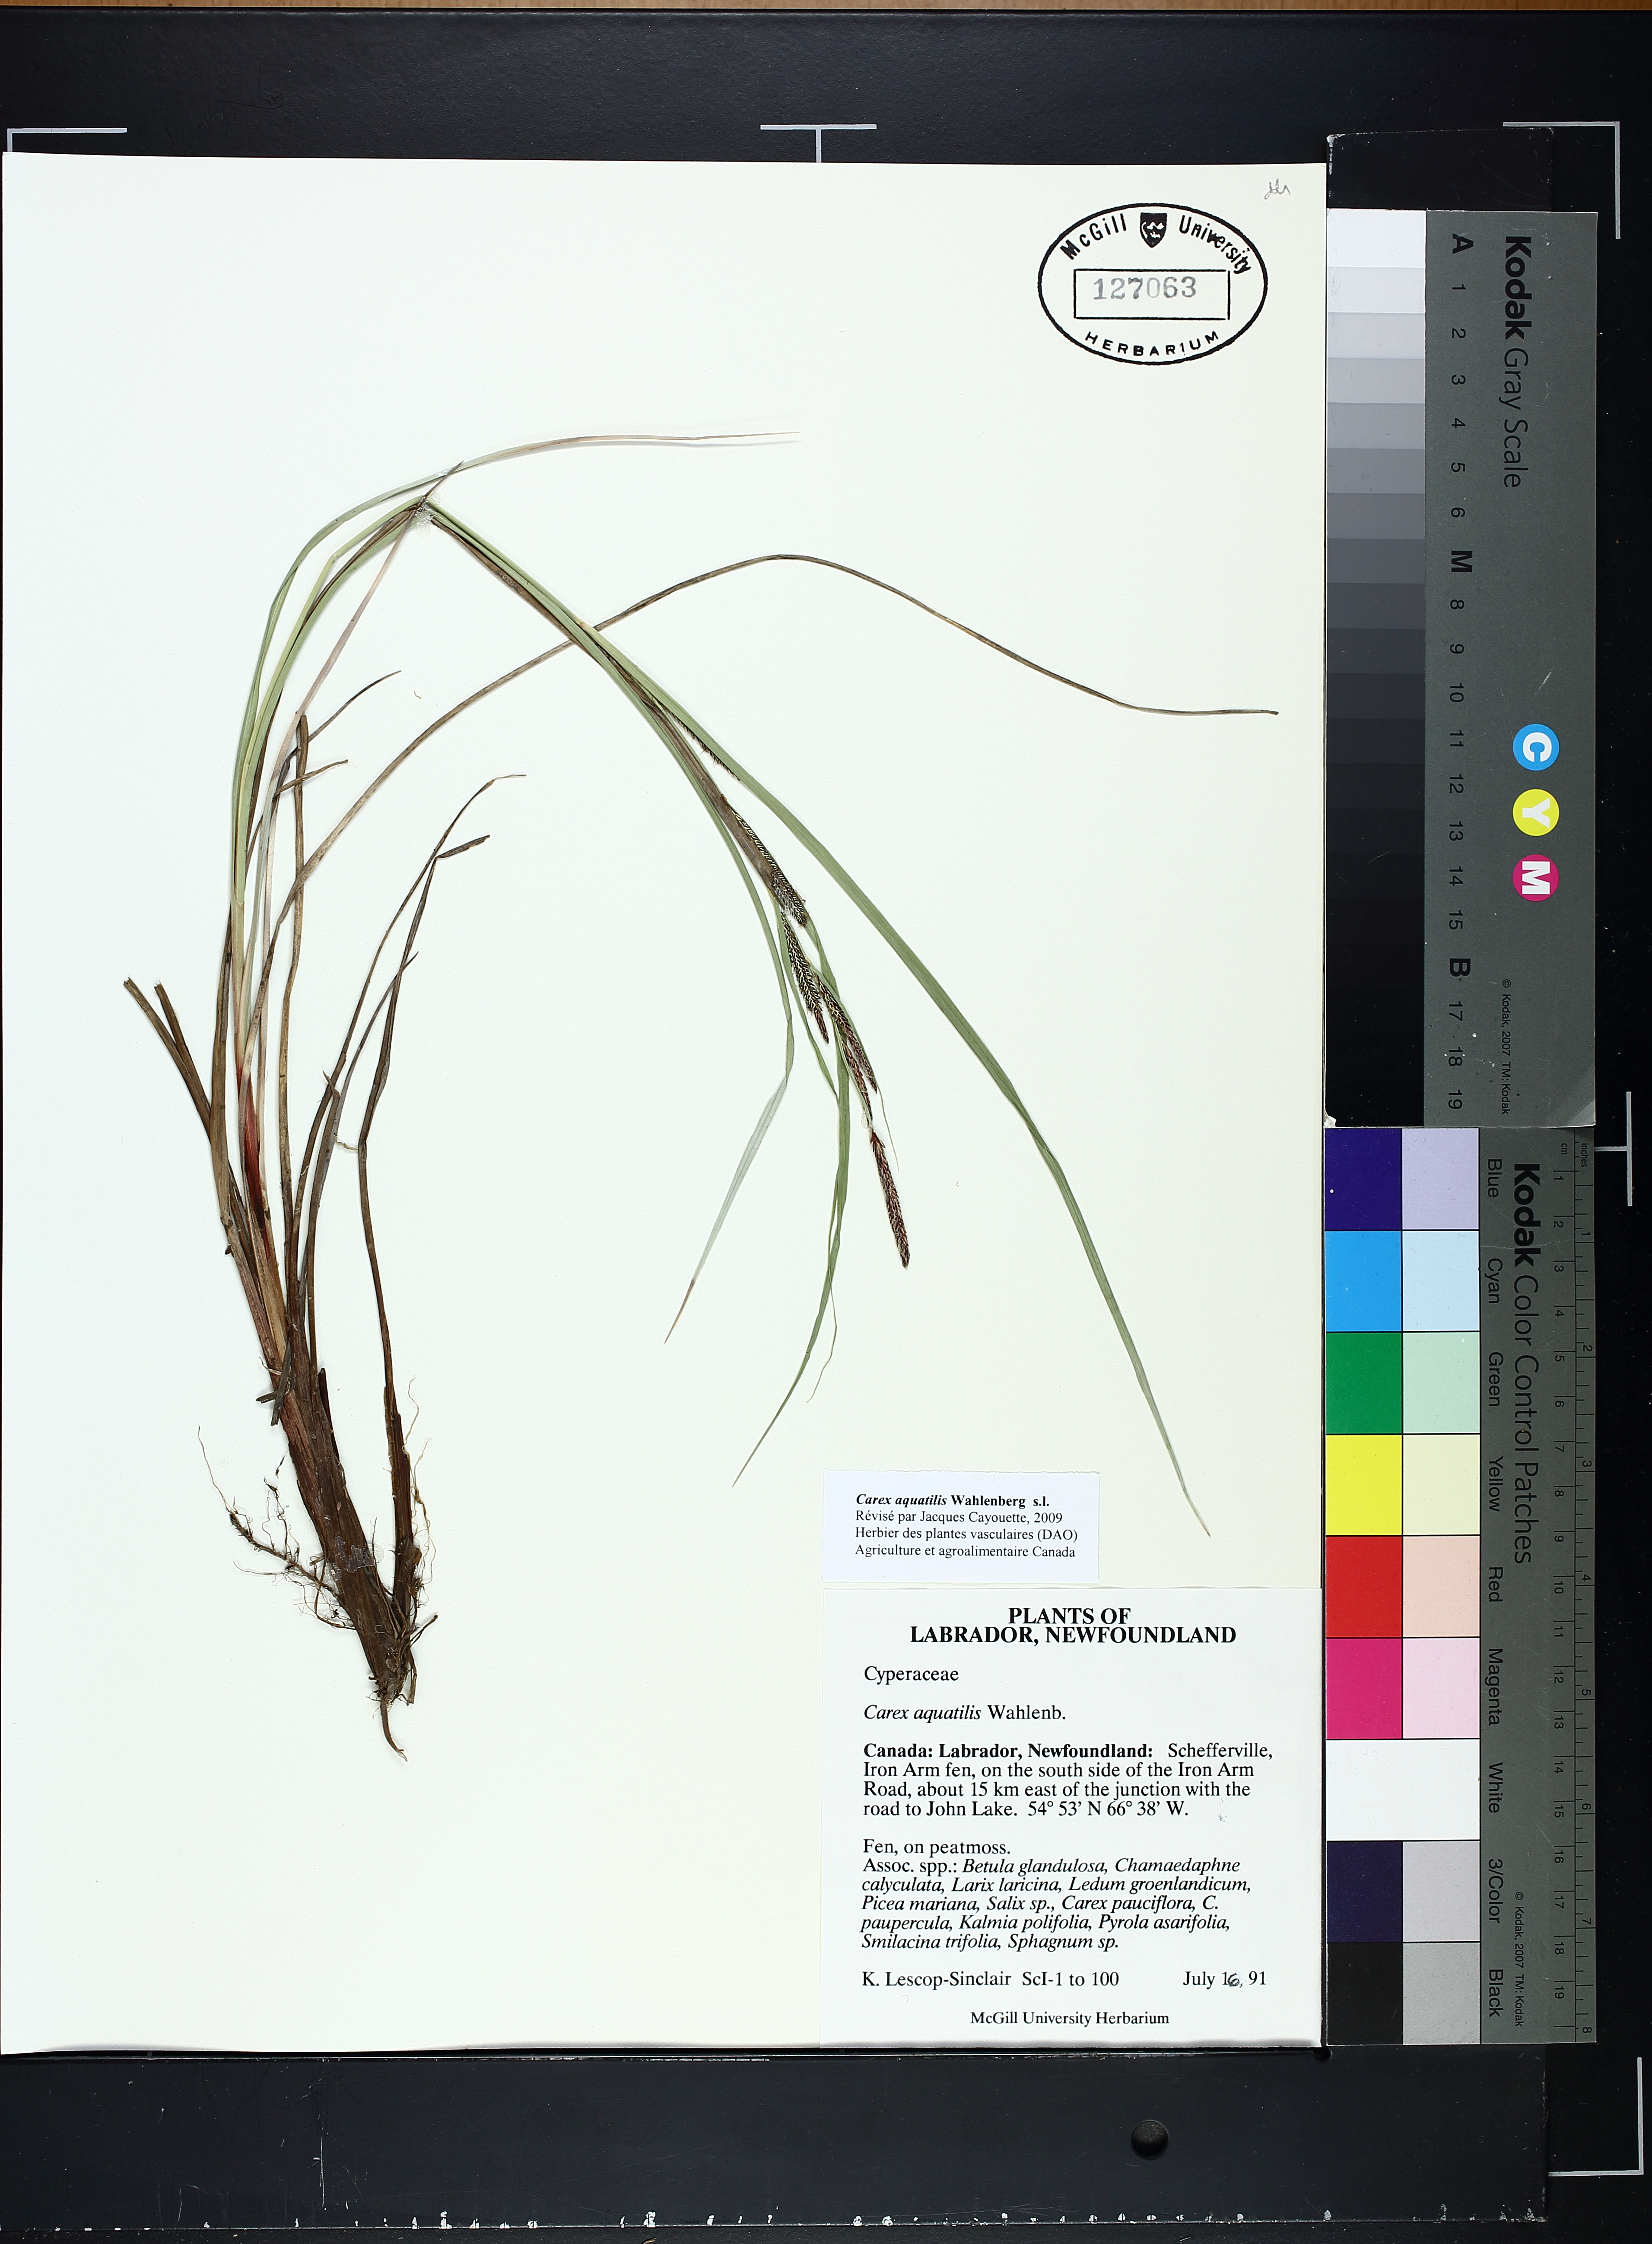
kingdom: Plantae
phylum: Tracheophyta
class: Liliopsida
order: Poales
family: Cyperaceae
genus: Carex
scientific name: Carex aquatilis
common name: Water sedge
